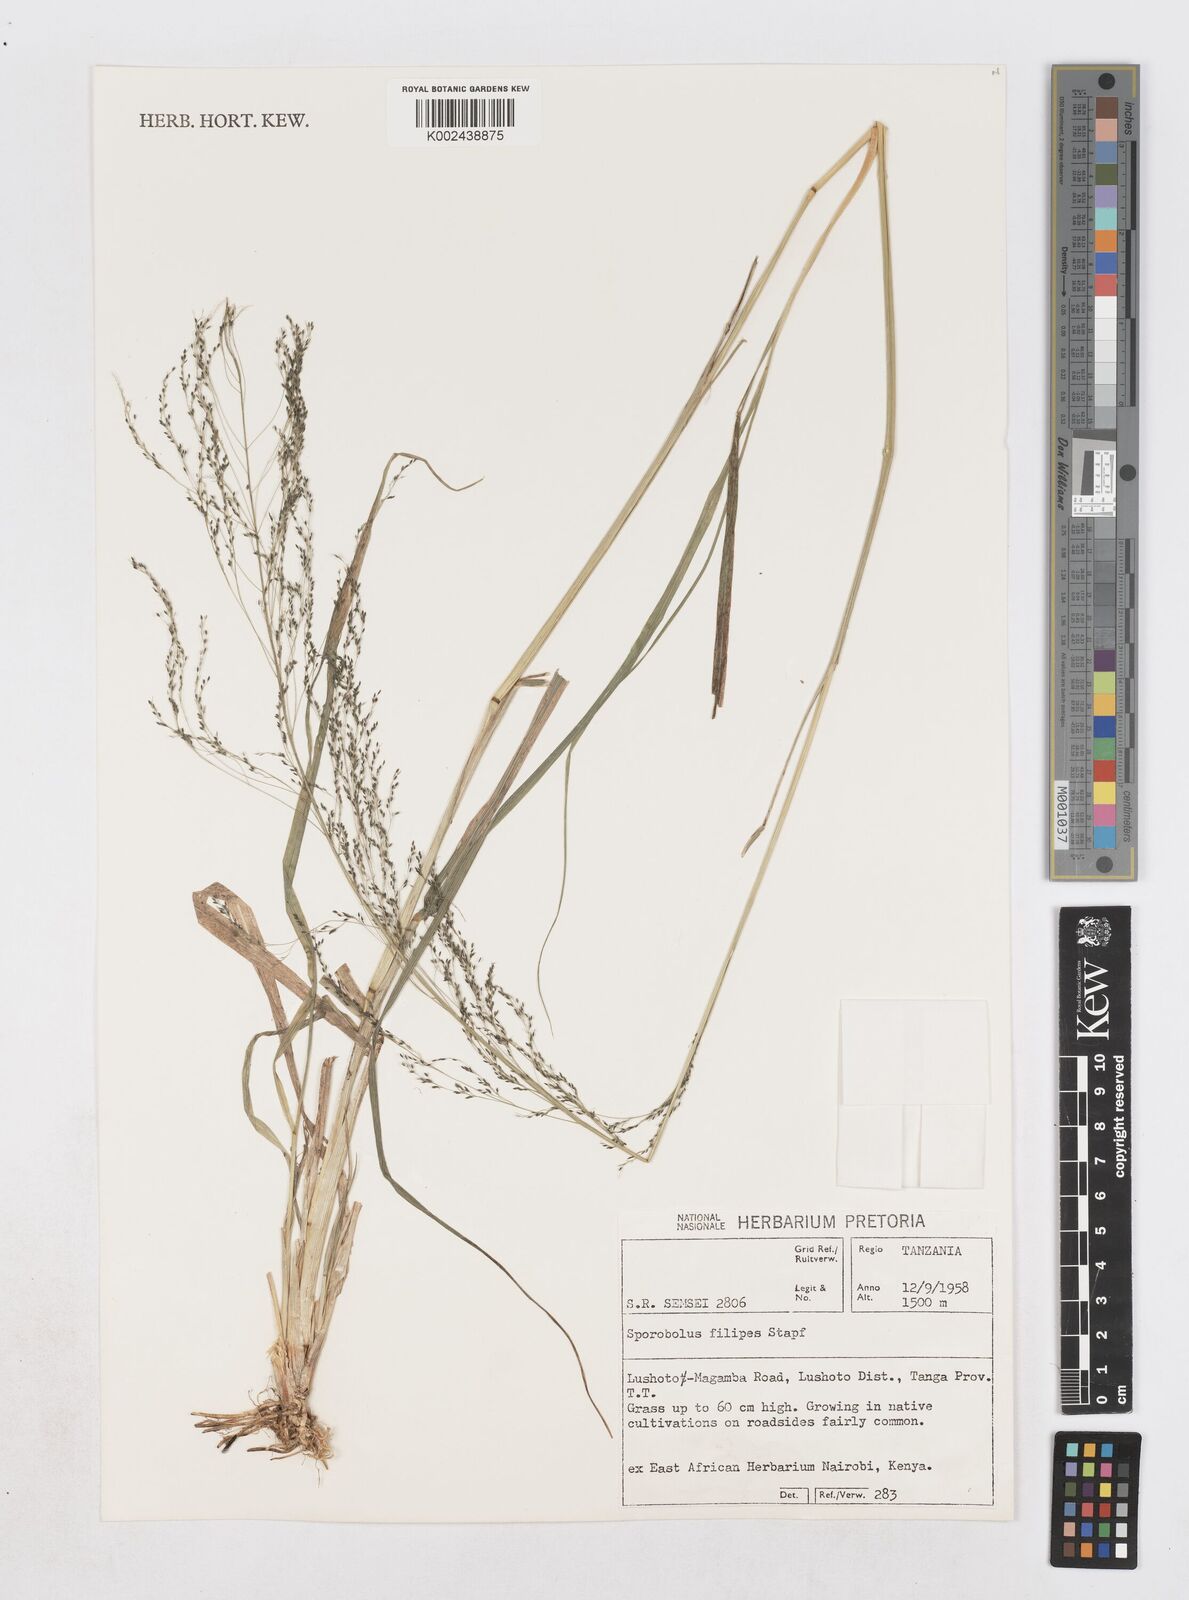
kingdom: Plantae
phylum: Tracheophyta
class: Liliopsida
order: Poales
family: Poaceae
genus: Sporobolus
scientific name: Sporobolus agrostoides
